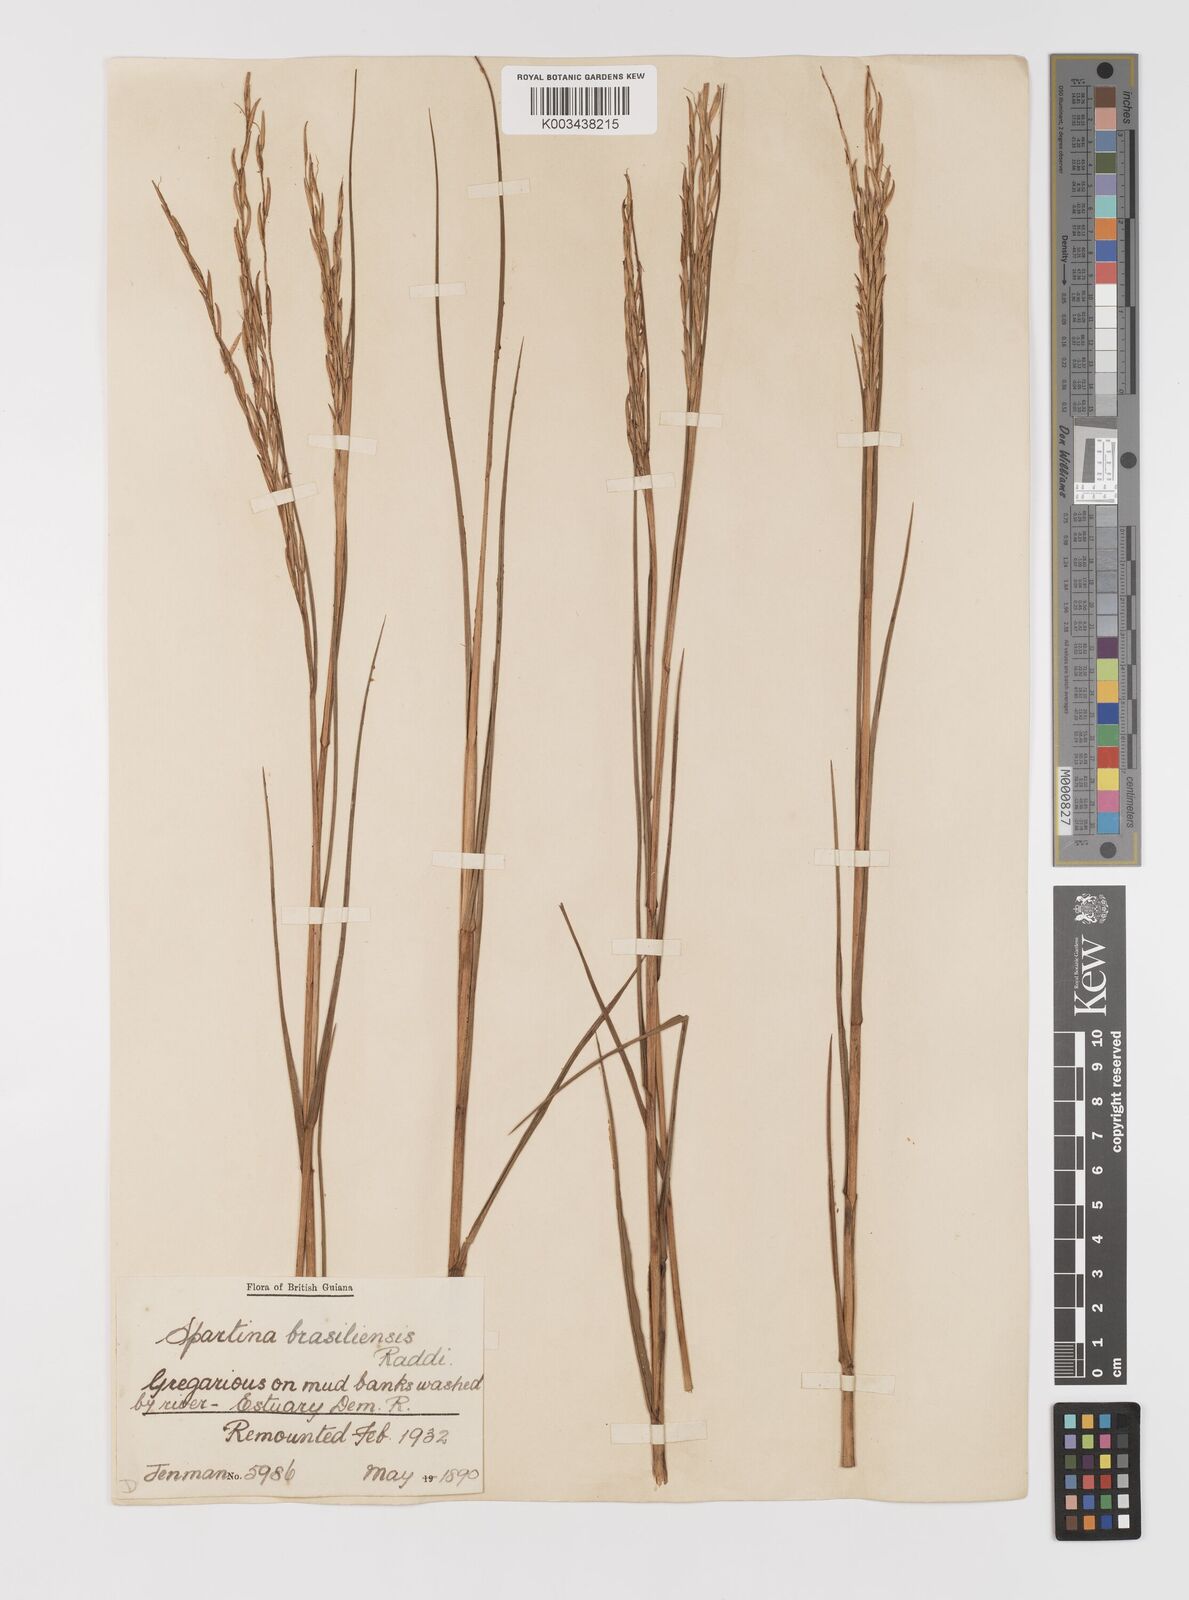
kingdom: Plantae
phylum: Tracheophyta
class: Liliopsida
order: Poales
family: Poaceae
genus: Sporobolus
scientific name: Sporobolus alterniflorus
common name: Atlantic cordgrass
